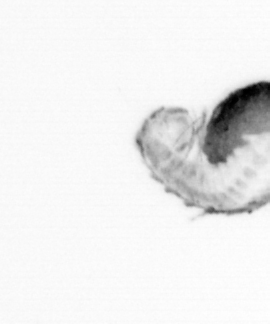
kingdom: Animalia
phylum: Annelida
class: Polychaeta
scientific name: Polychaeta
